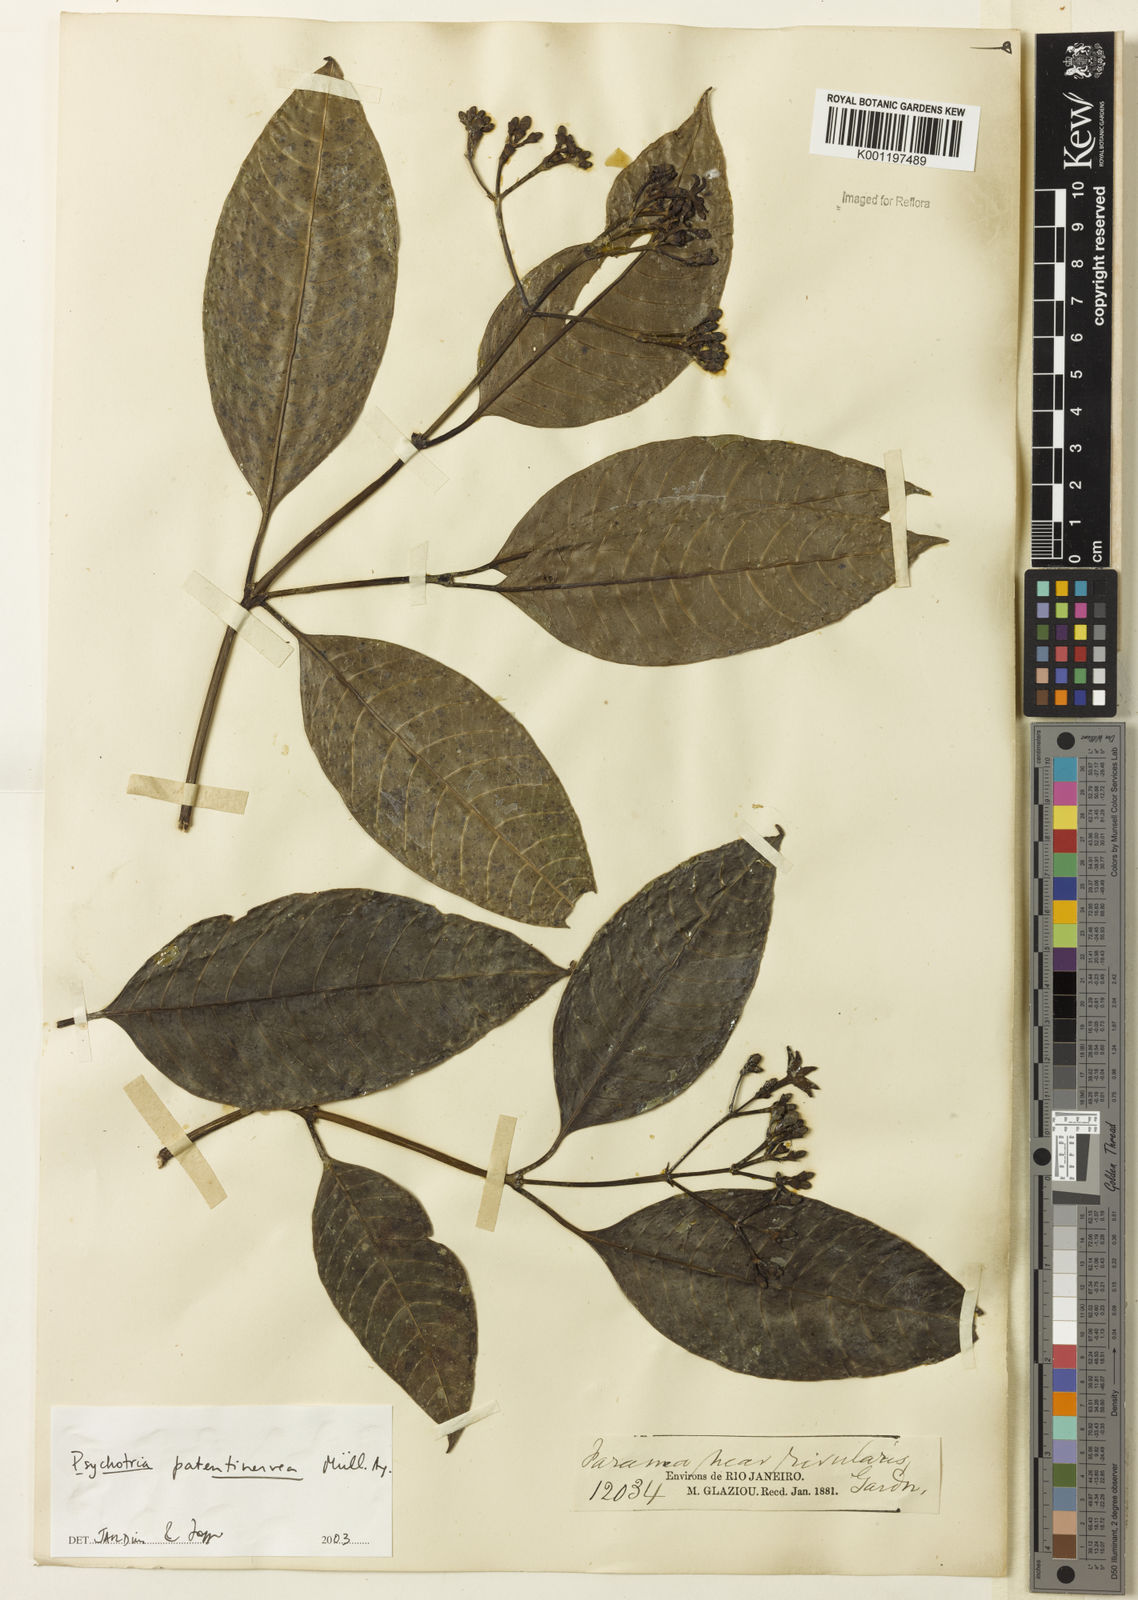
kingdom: Plantae
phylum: Tracheophyta
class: Magnoliopsida
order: Gentianales
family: Rubiaceae
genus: Psychotria
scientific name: Psychotria
